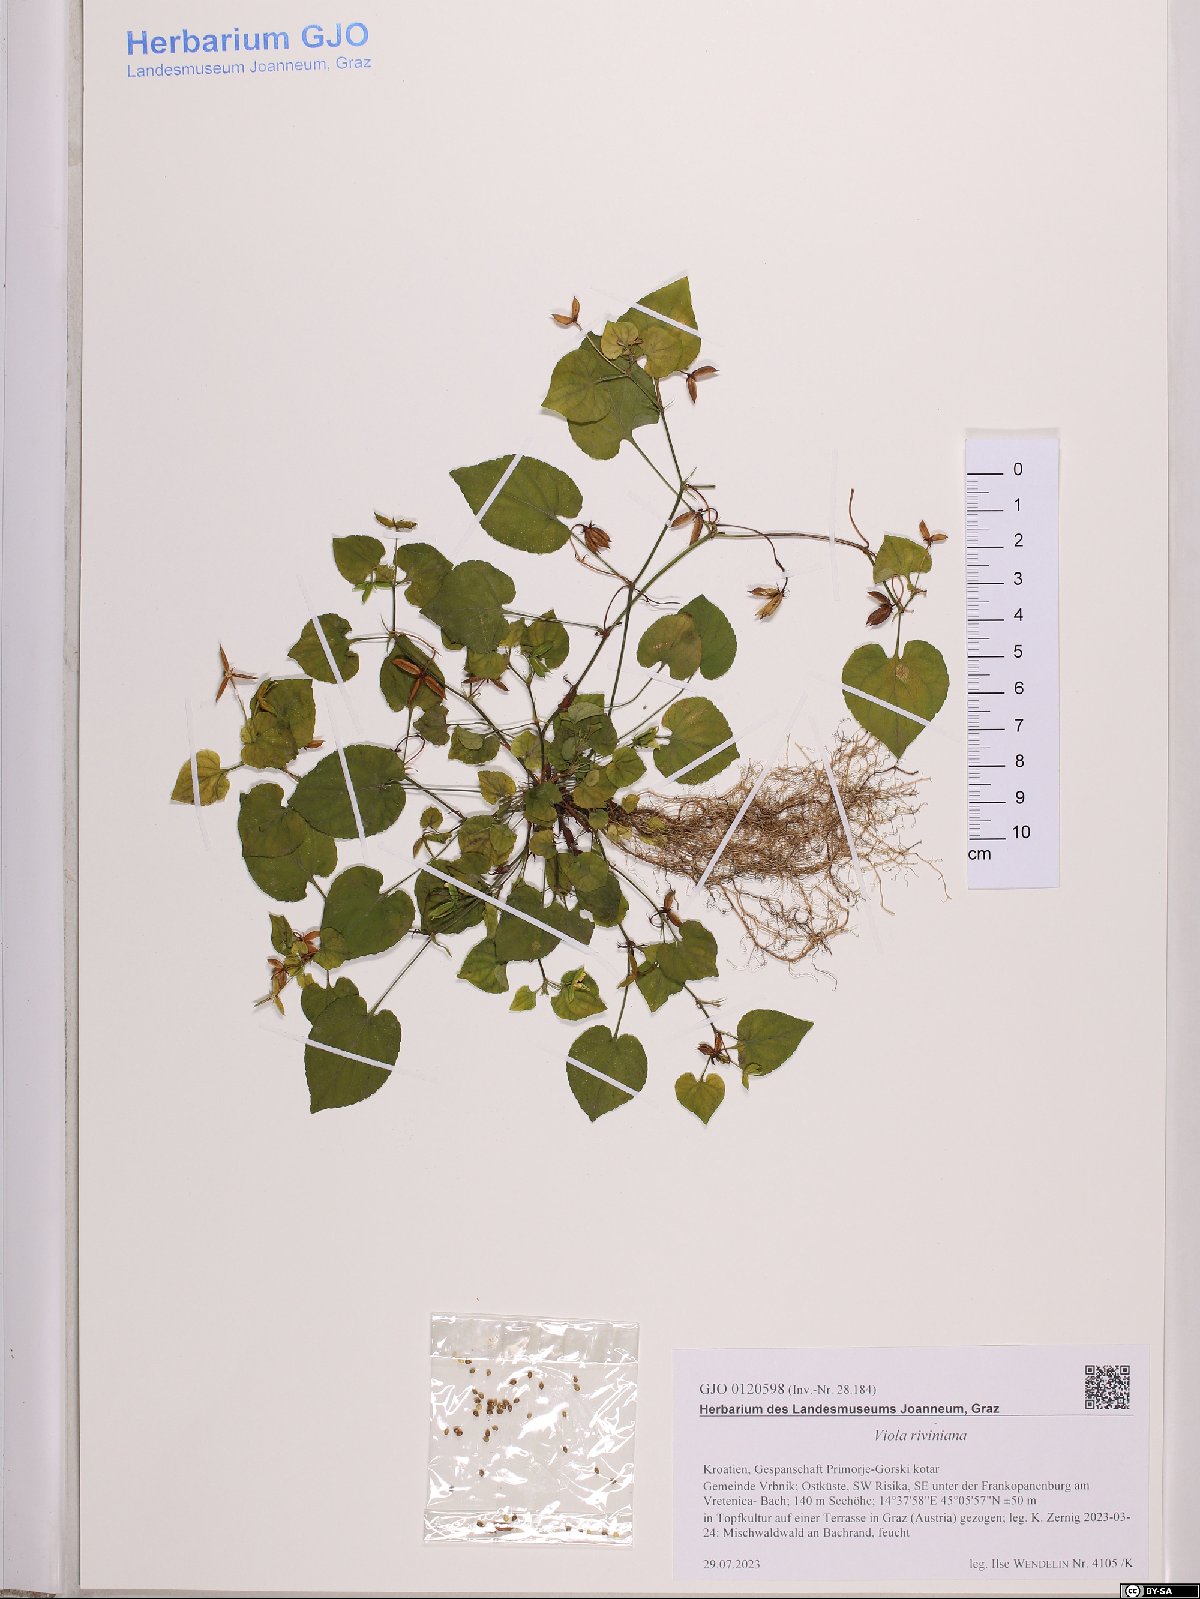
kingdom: Plantae
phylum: Tracheophyta
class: Magnoliopsida
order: Malpighiales
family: Violaceae
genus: Viola
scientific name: Viola riviniana
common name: Common dog-violet
